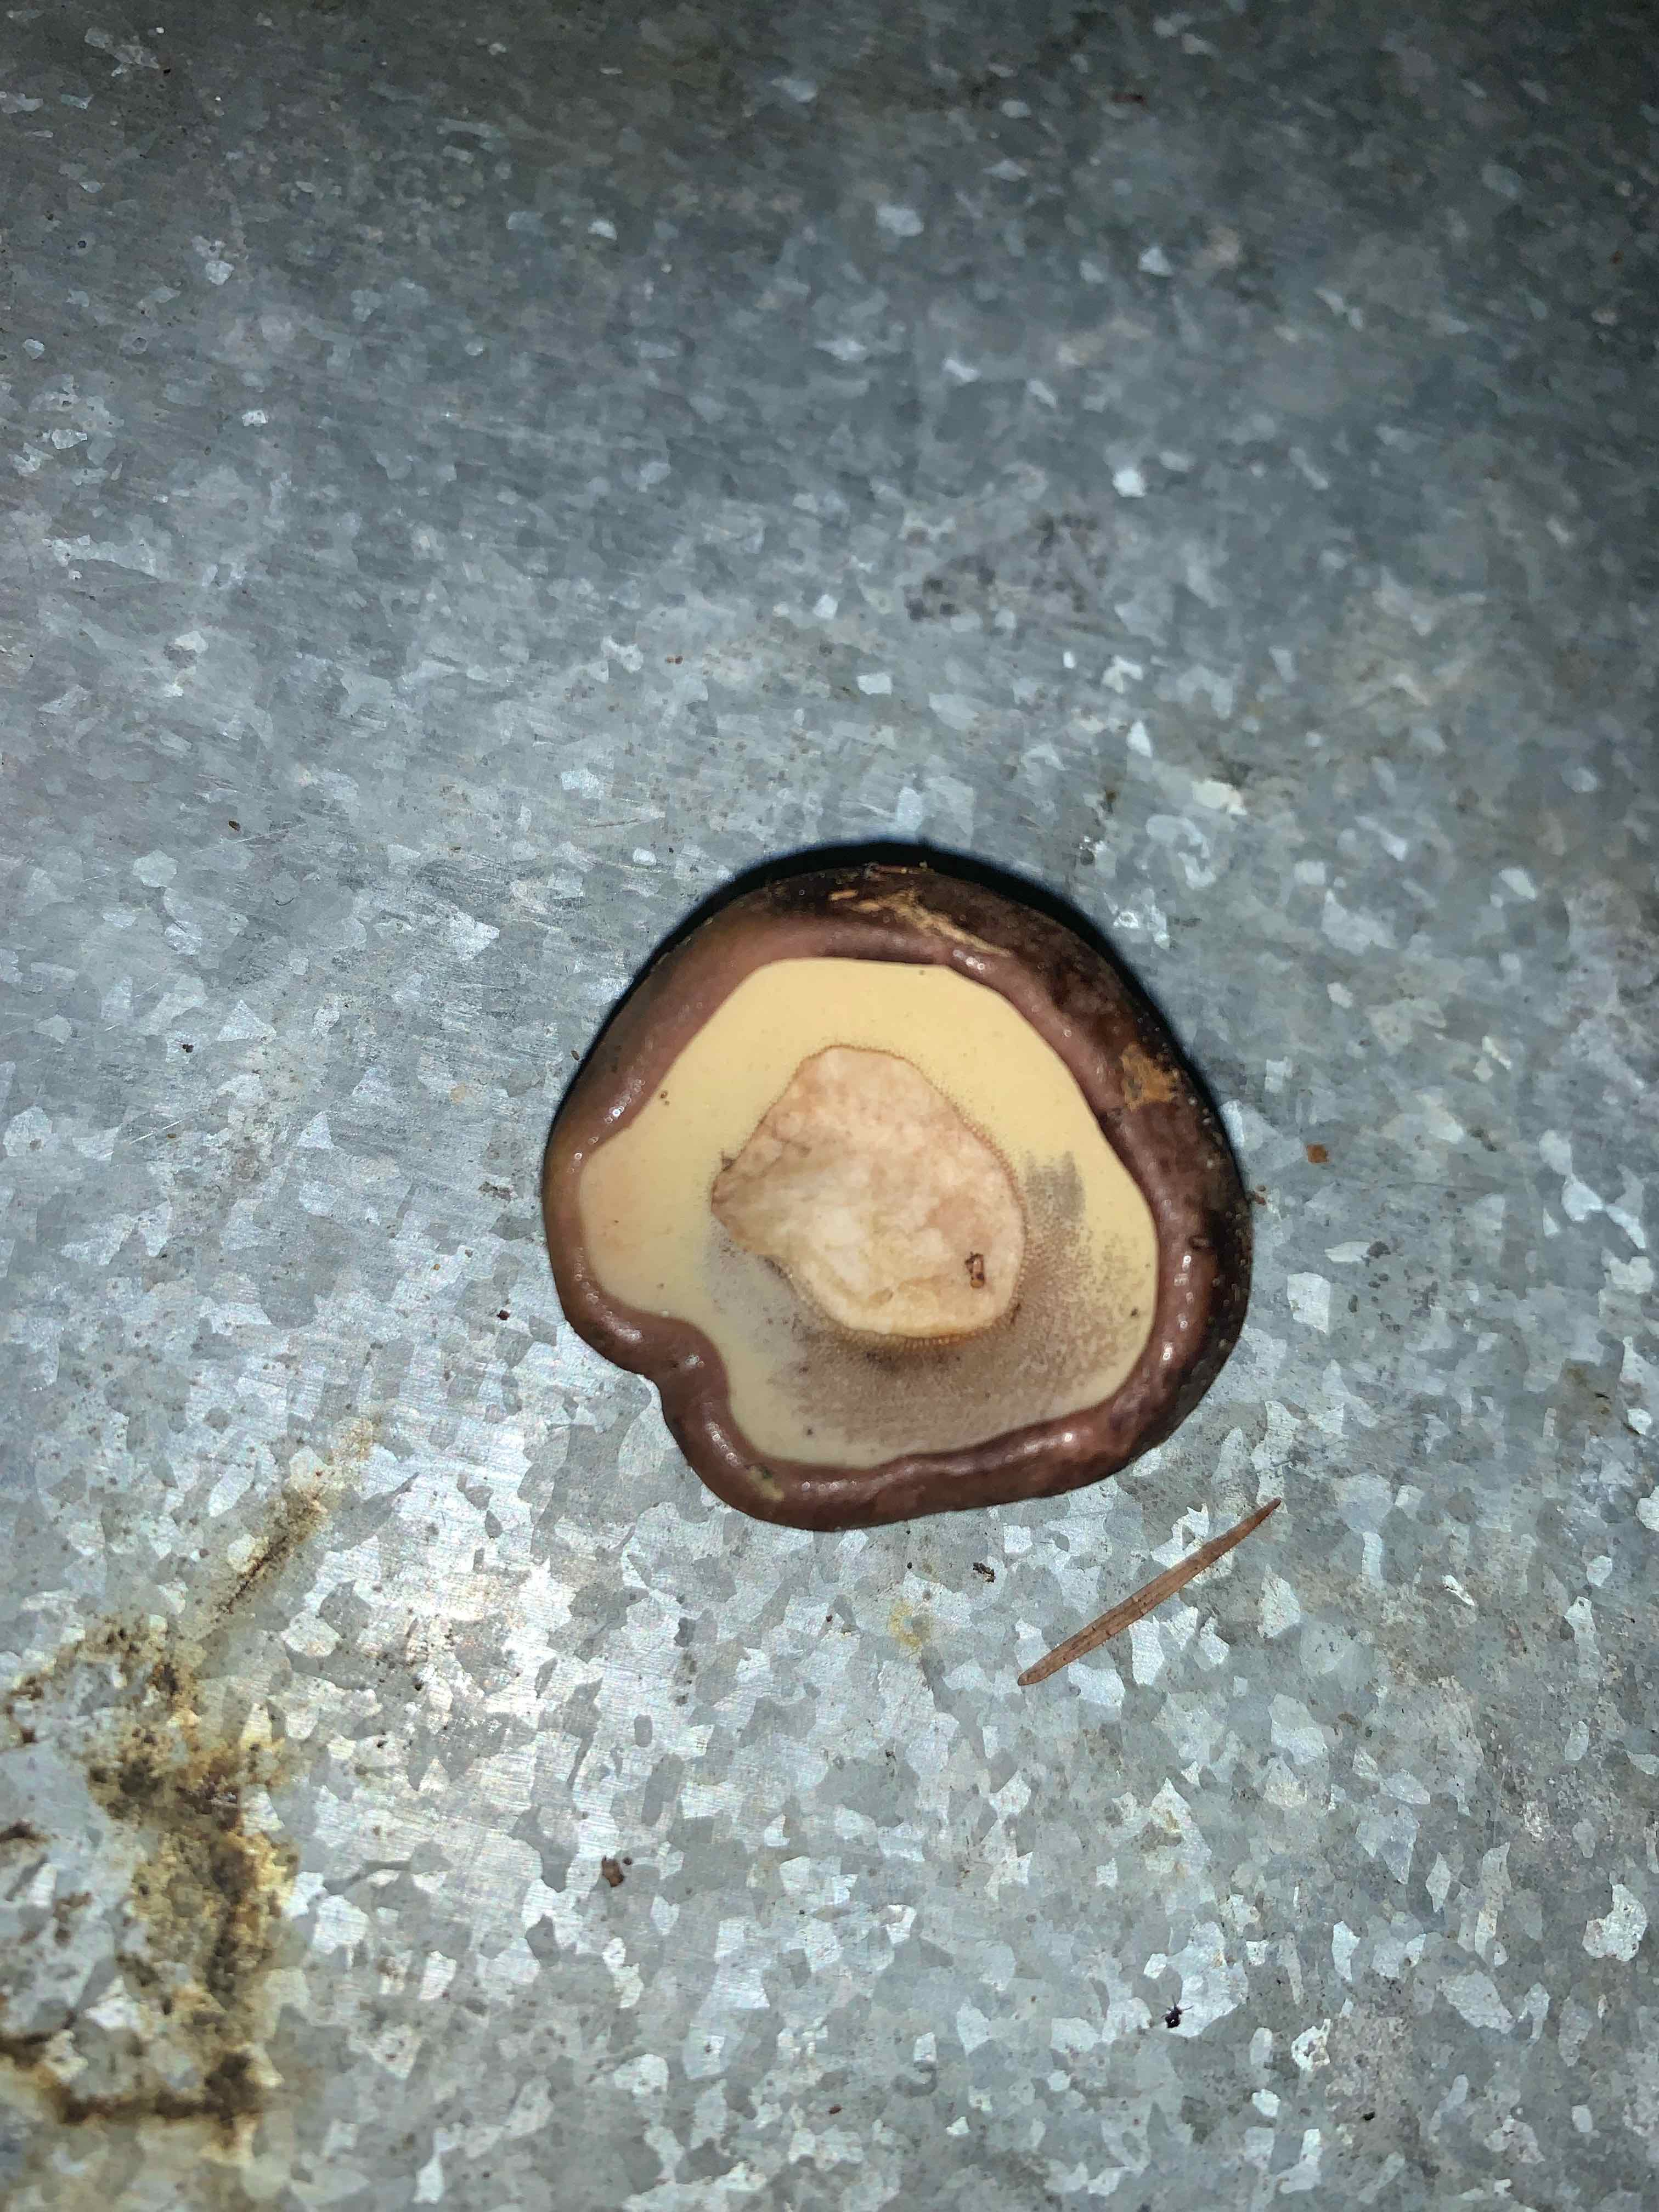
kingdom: Fungi
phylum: Basidiomycota
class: Agaricomycetes
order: Boletales
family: Boletaceae
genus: Imleria
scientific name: Imleria badia
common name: brunstokket rørhat
